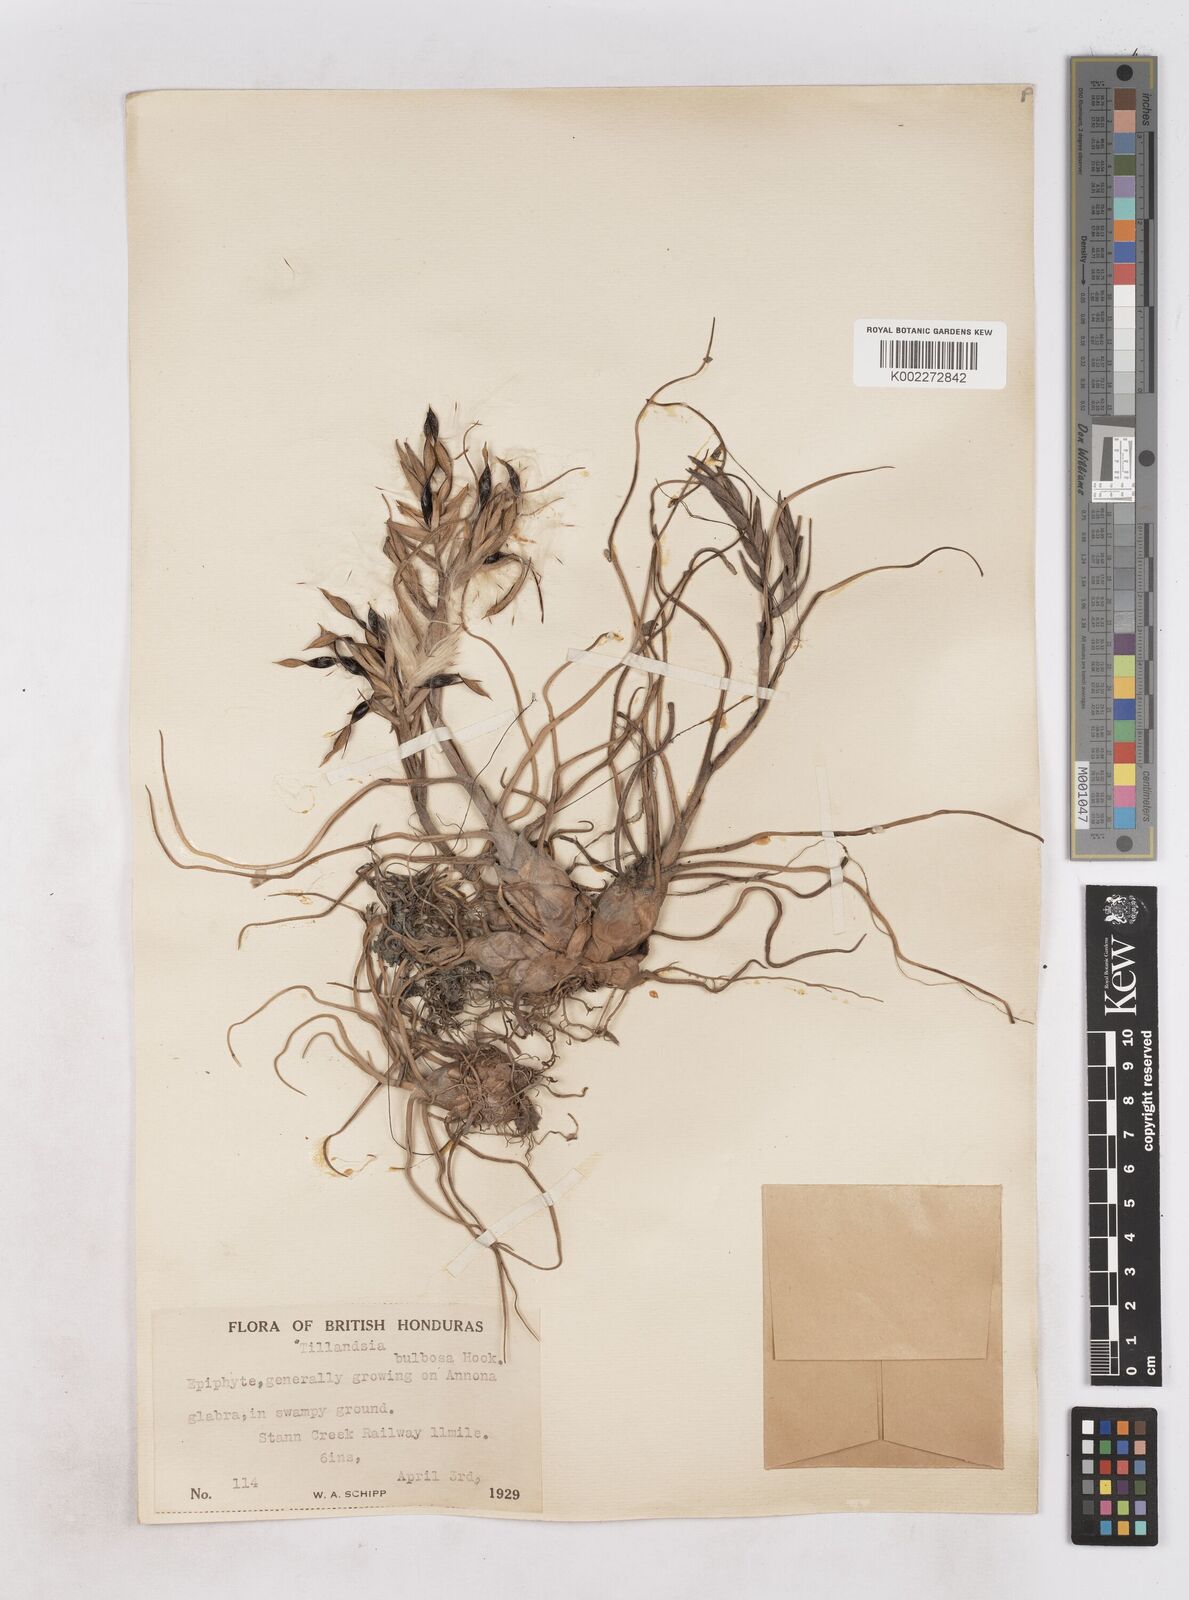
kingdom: Plantae
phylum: Tracheophyta
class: Liliopsida
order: Poales
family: Bromeliaceae
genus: Tillandsia
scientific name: Tillandsia bulbosa
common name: Bulbous airplant
